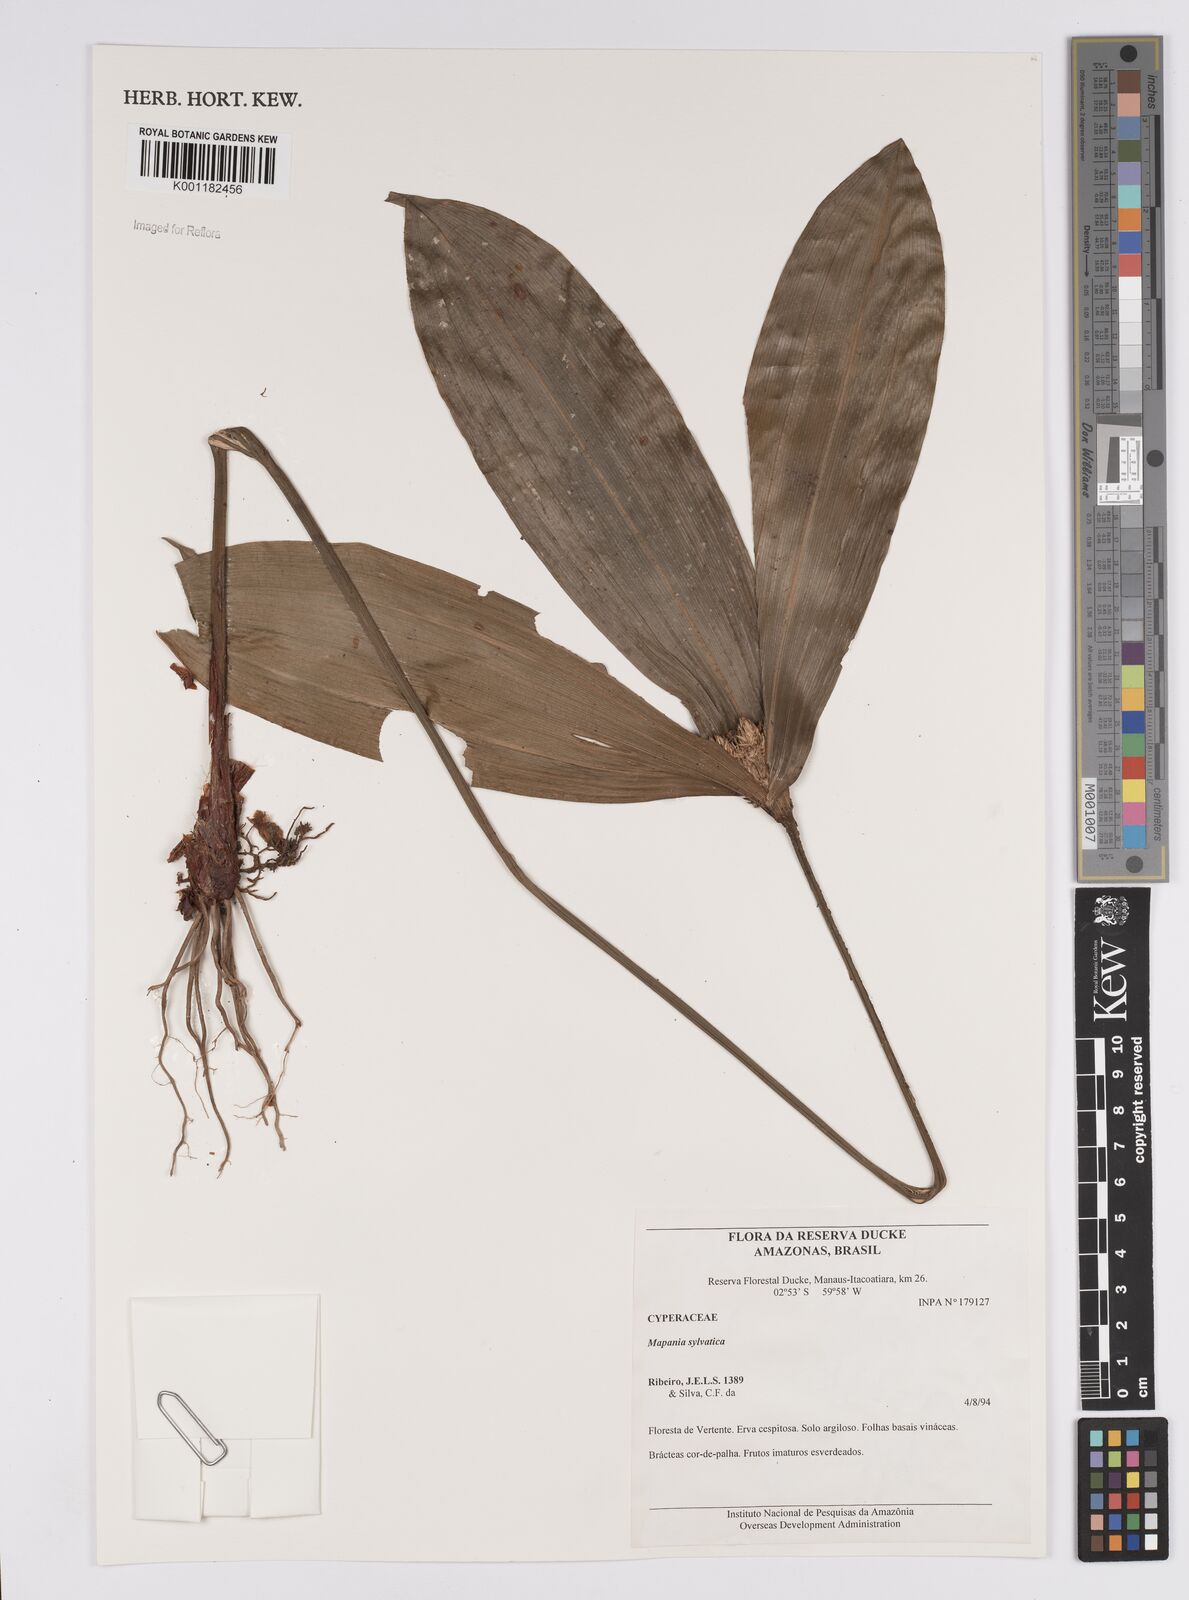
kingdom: Plantae
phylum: Tracheophyta
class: Liliopsida
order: Poales
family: Cyperaceae
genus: Mapania
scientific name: Mapania sylvatica
